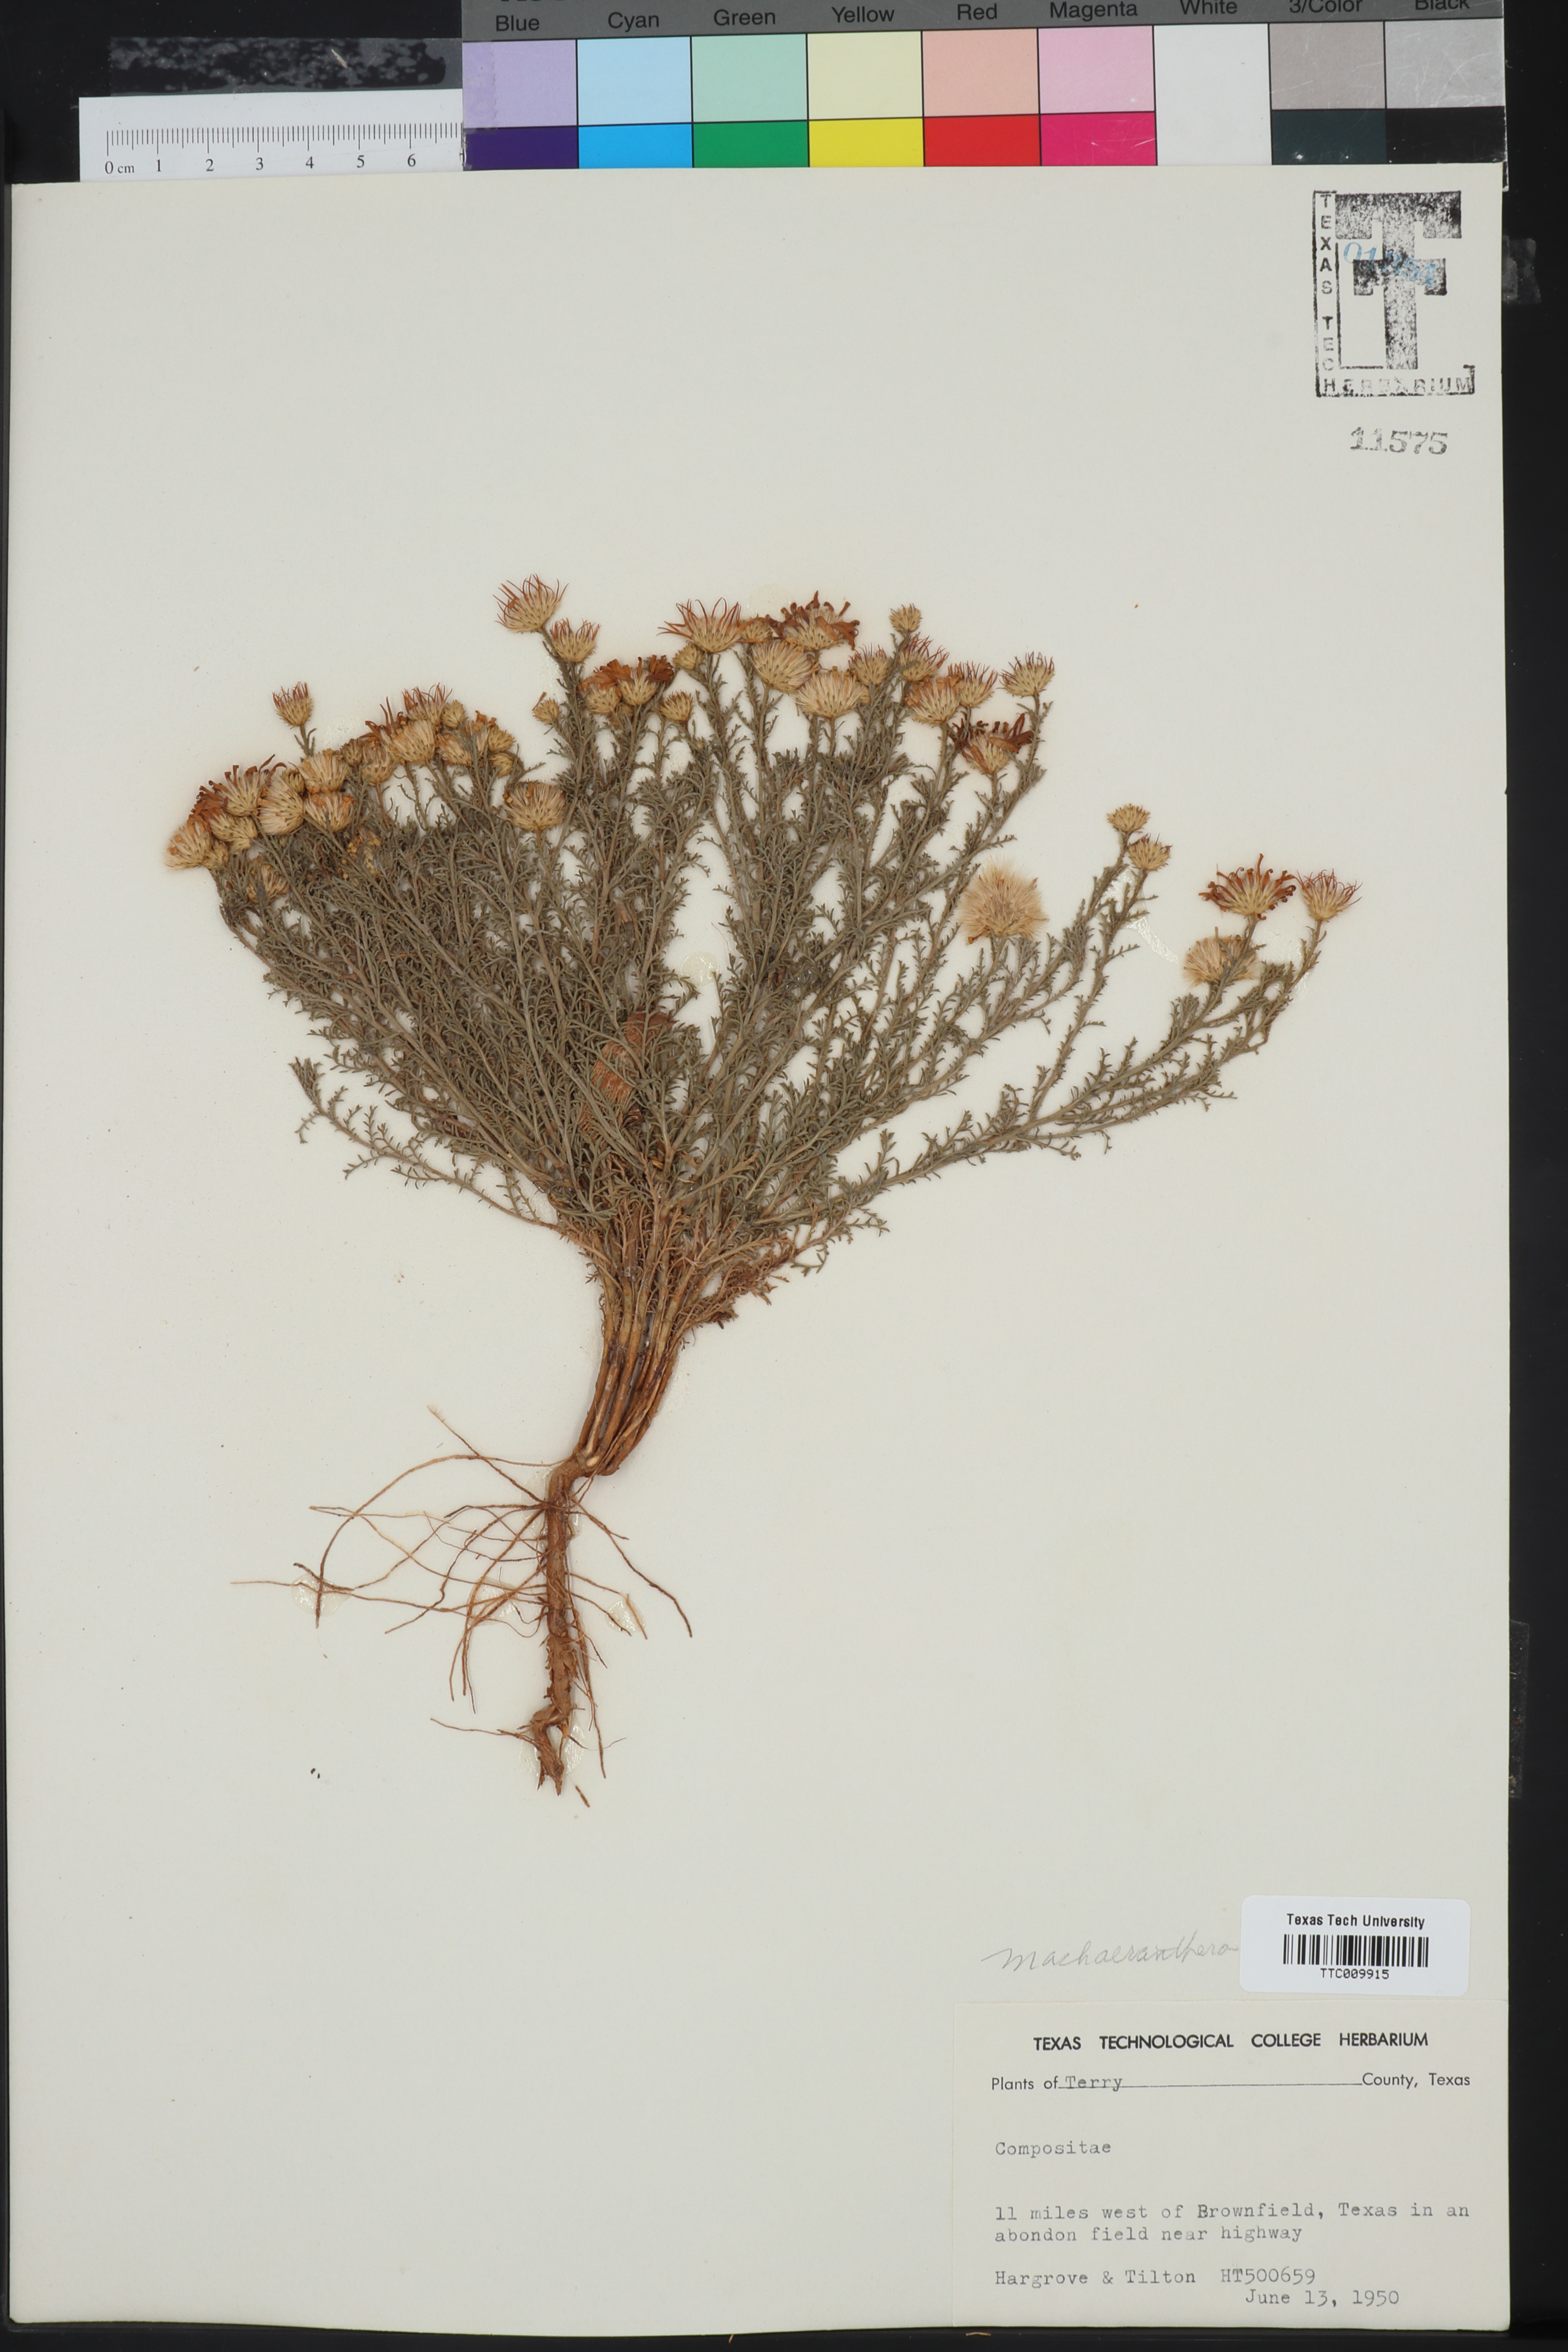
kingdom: Plantae
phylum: Tracheophyta
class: Magnoliopsida
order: Asterales
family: Asteraceae
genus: Machaeranthera
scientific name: Machaeranthera
